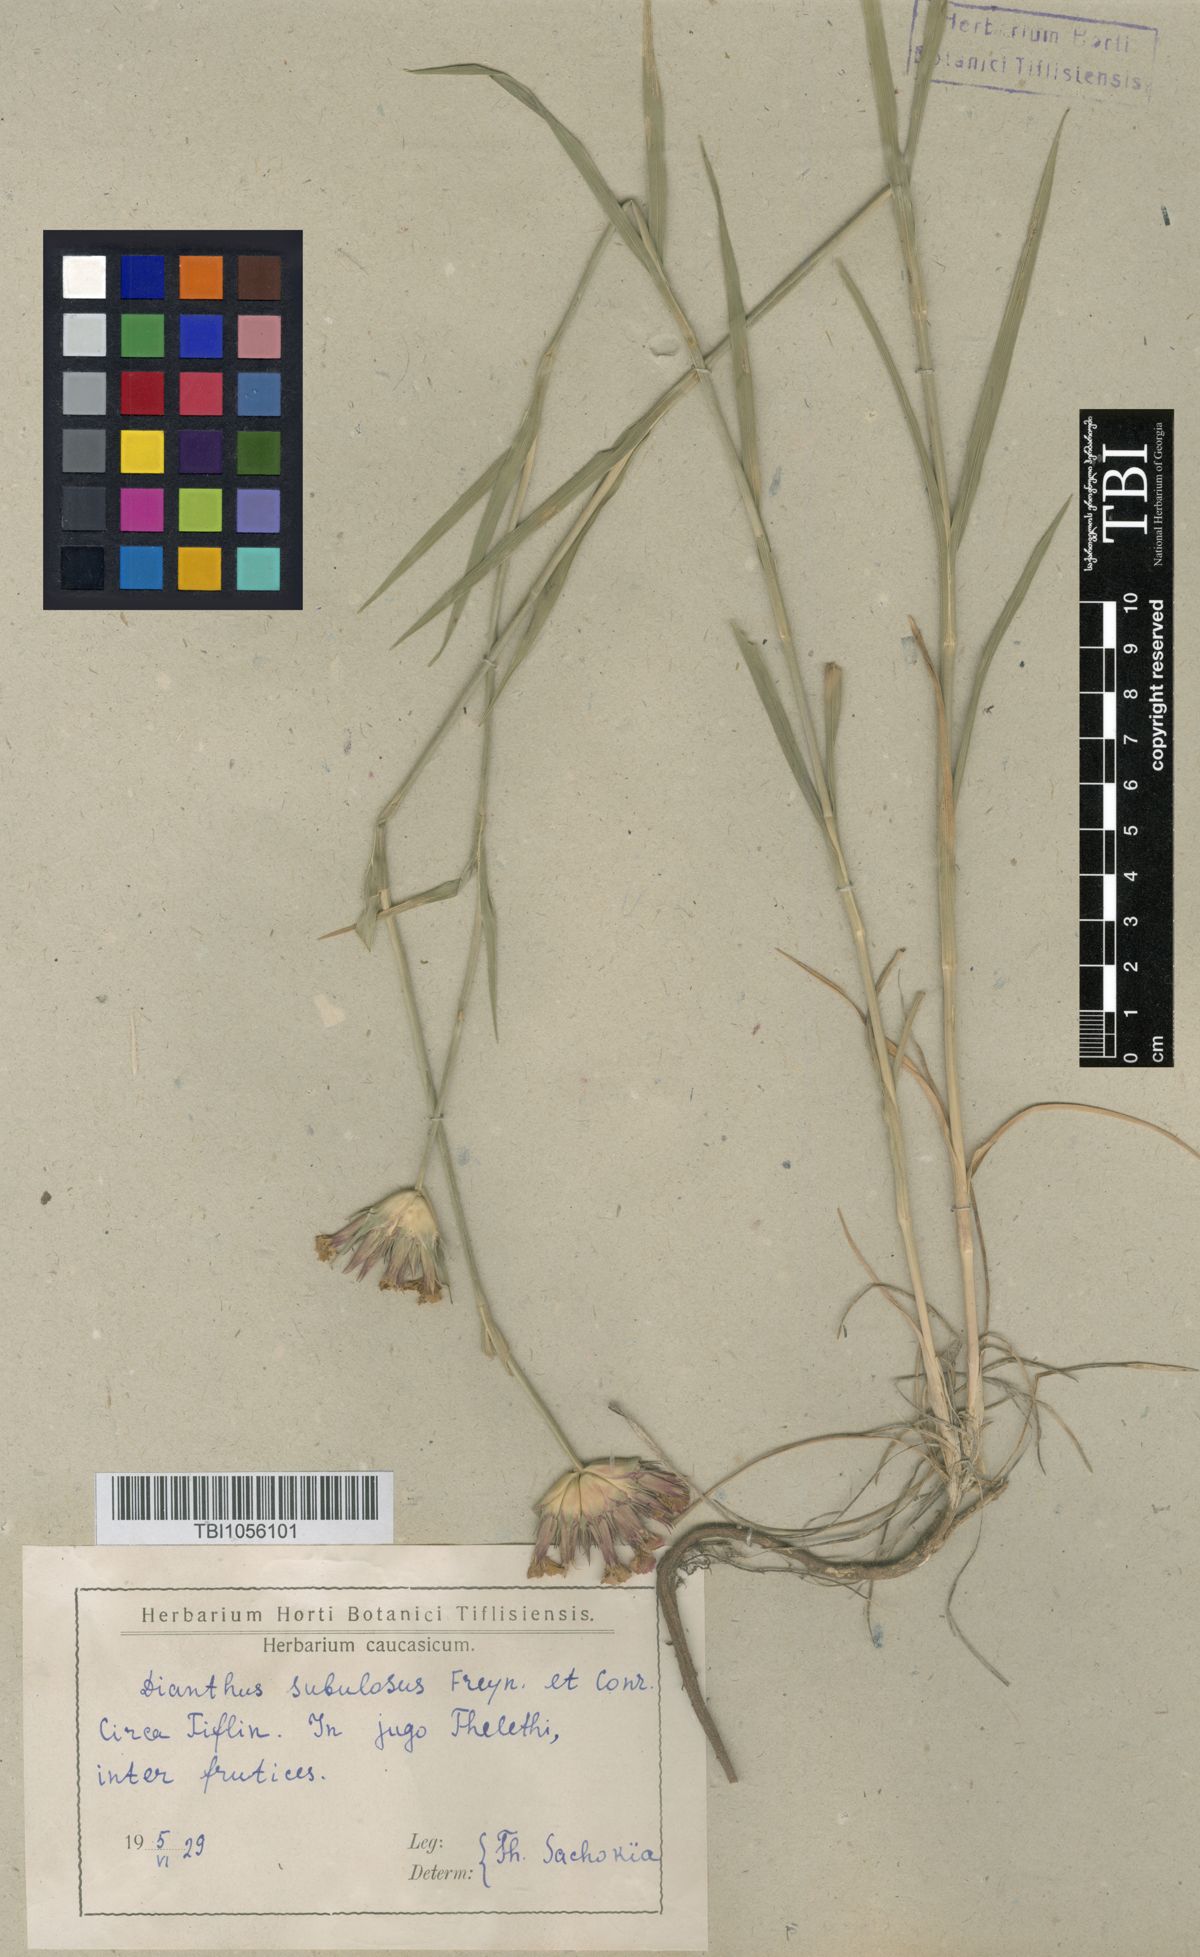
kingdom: Plantae
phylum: Tracheophyta
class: Magnoliopsida
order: Caryophyllales
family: Caryophyllaceae
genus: Dianthus
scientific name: Dianthus subulosus
